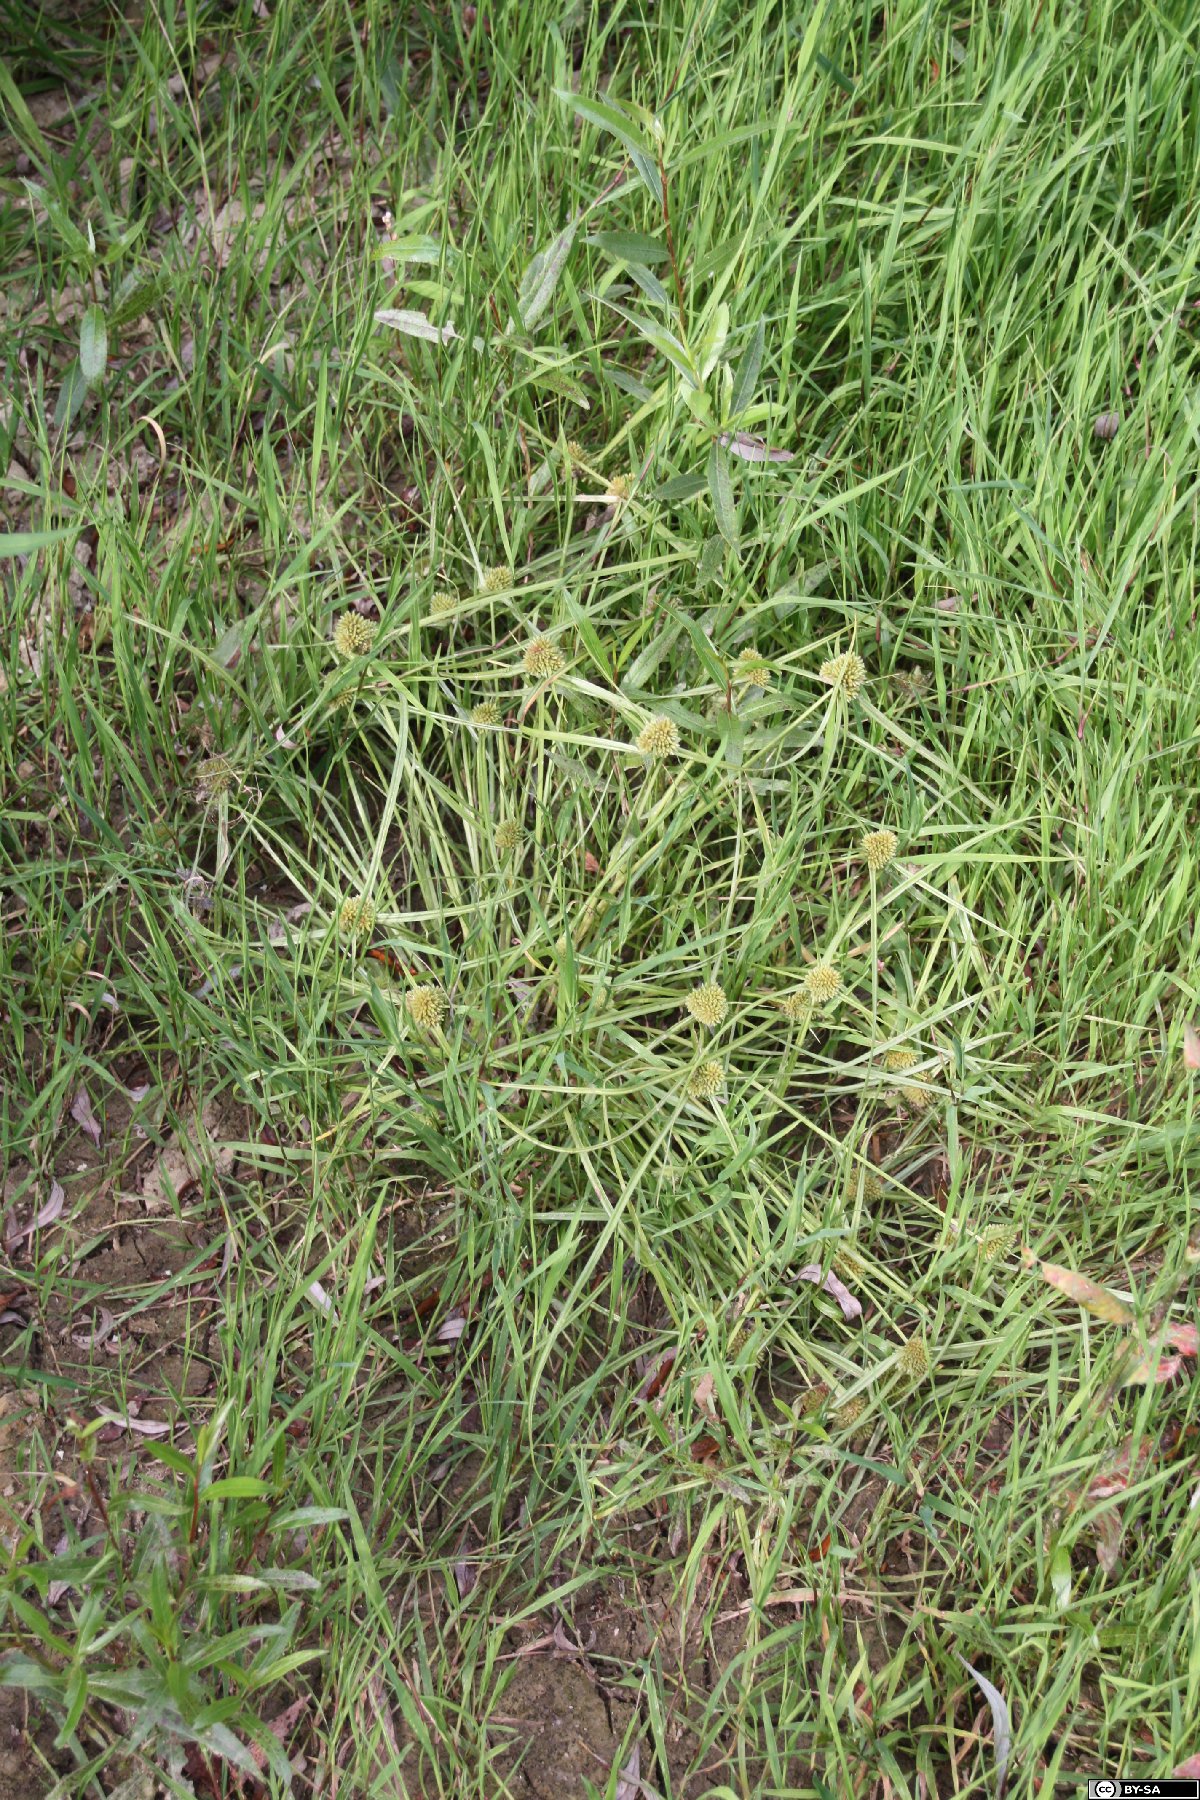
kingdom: Plantae
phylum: Tracheophyta
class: Liliopsida
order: Poales
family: Cyperaceae
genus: Cyperus
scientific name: Cyperus michelianus
